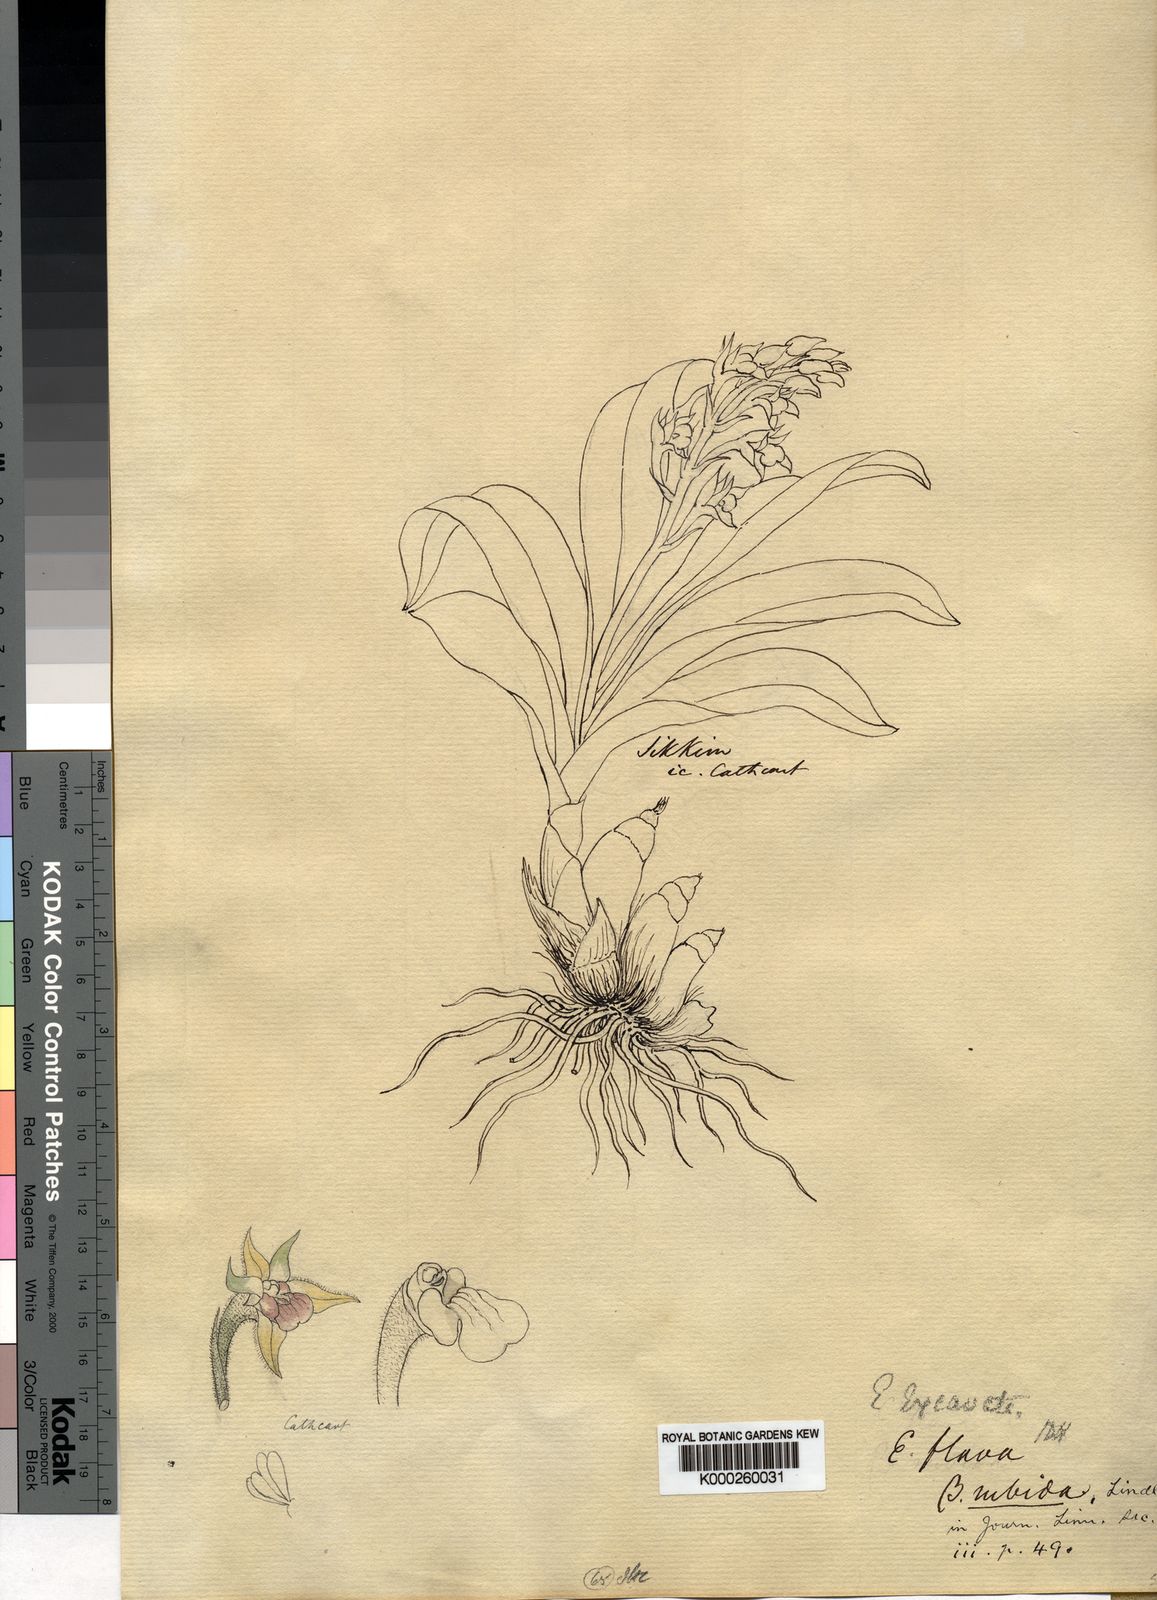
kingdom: Plantae
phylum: Tracheophyta
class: Liliopsida
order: Asparagales
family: Orchidaceae
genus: Pinalia
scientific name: Pinalia excavata
